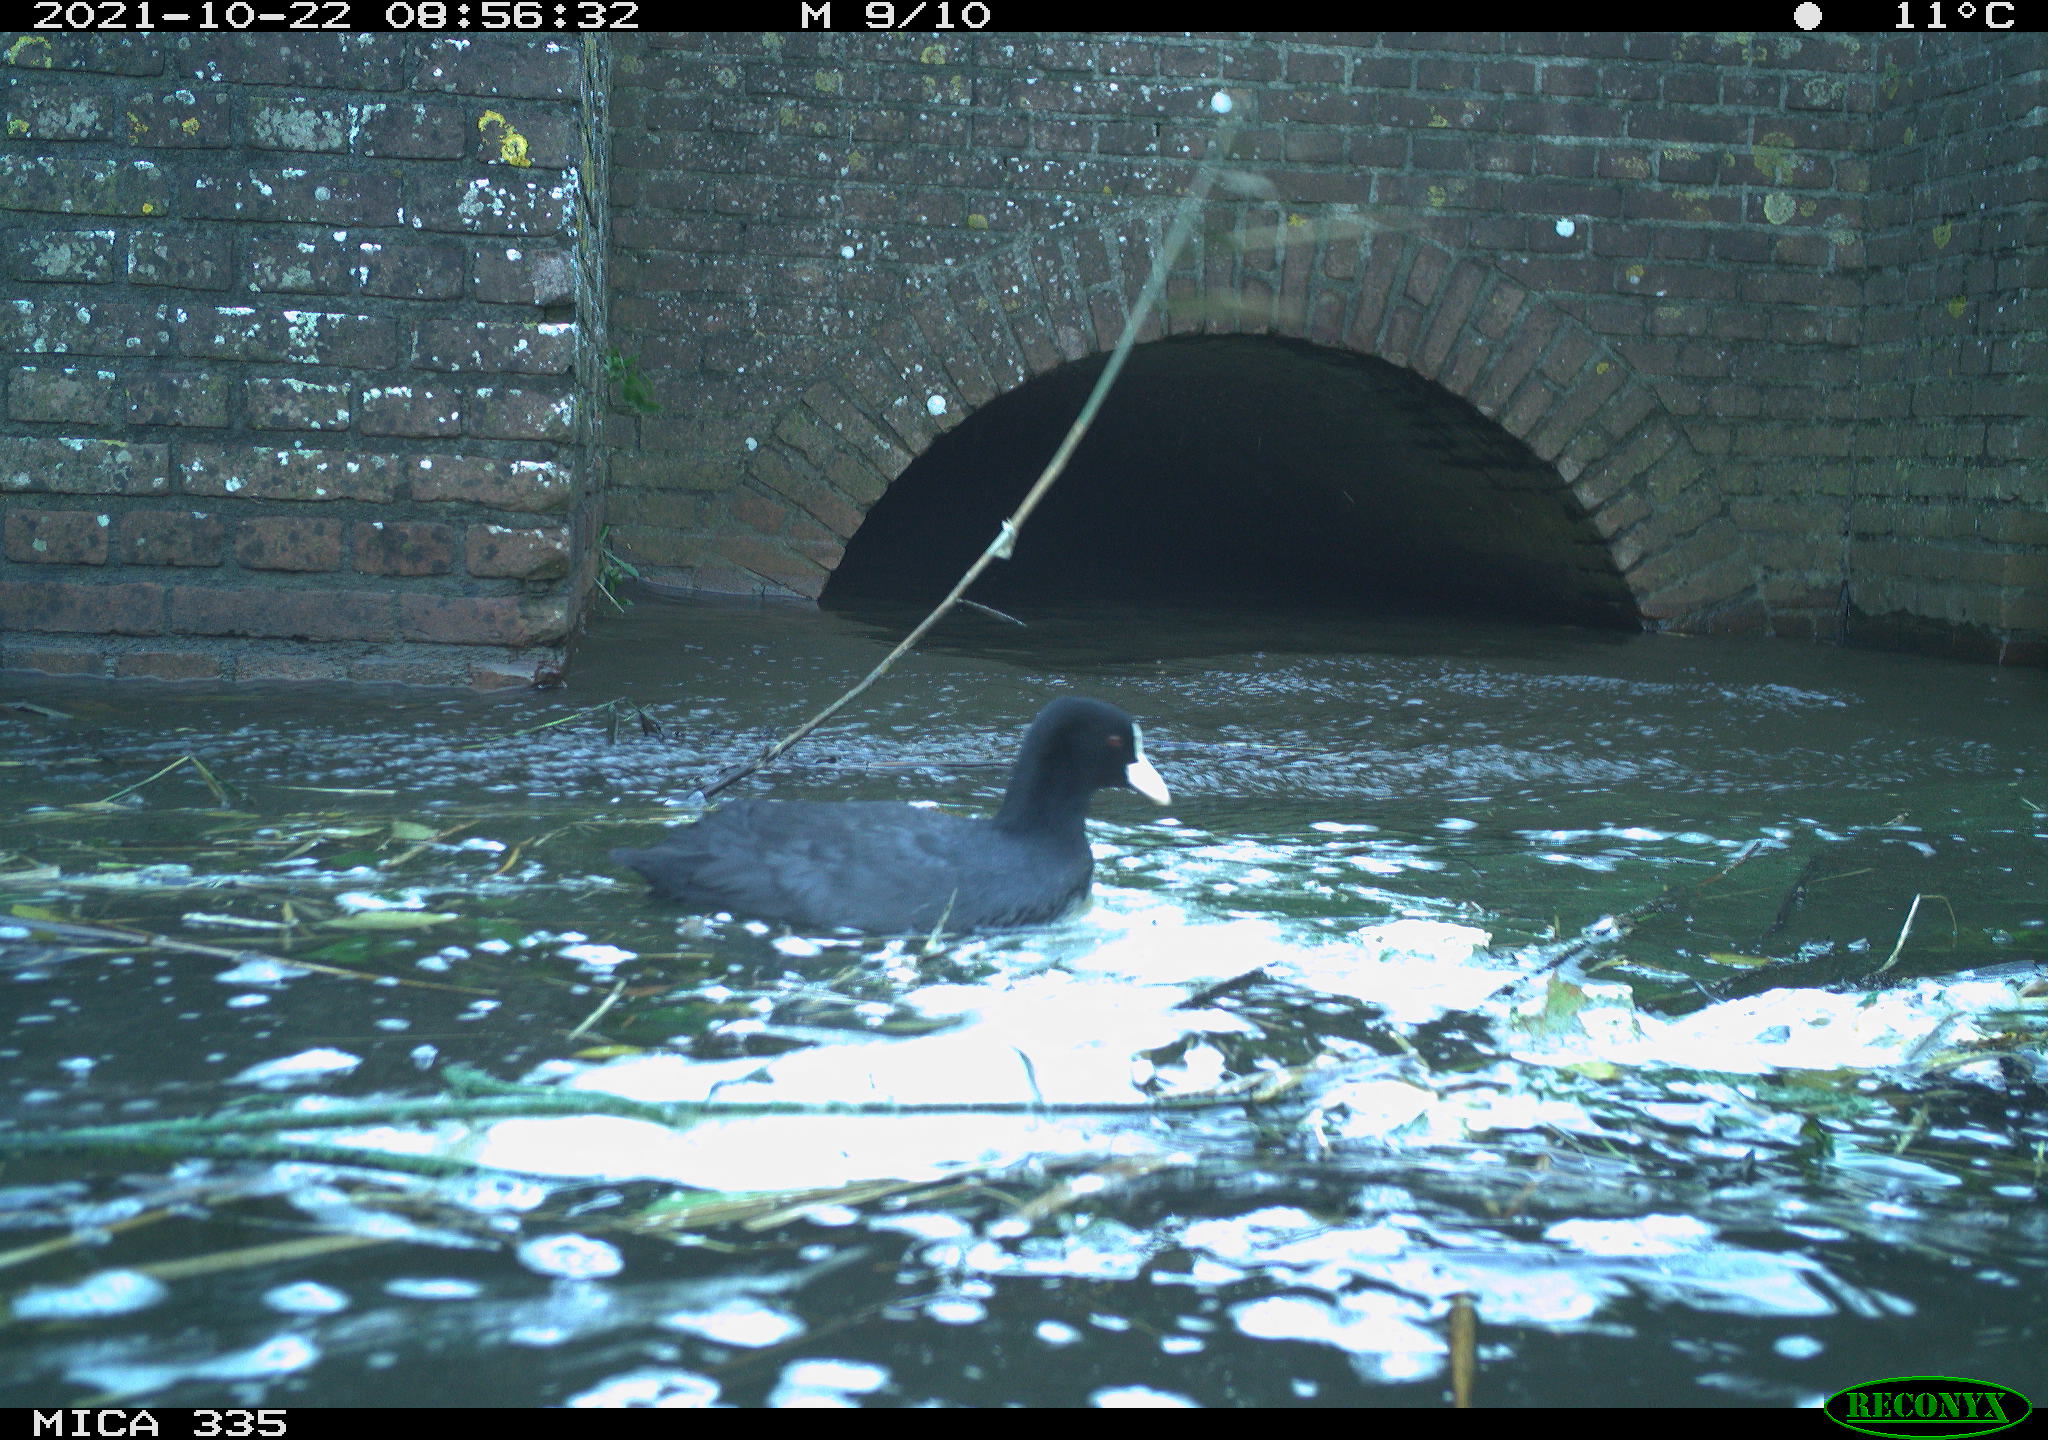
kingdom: Animalia
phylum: Chordata
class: Aves
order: Gruiformes
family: Rallidae
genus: Fulica
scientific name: Fulica atra
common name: Eurasian coot
